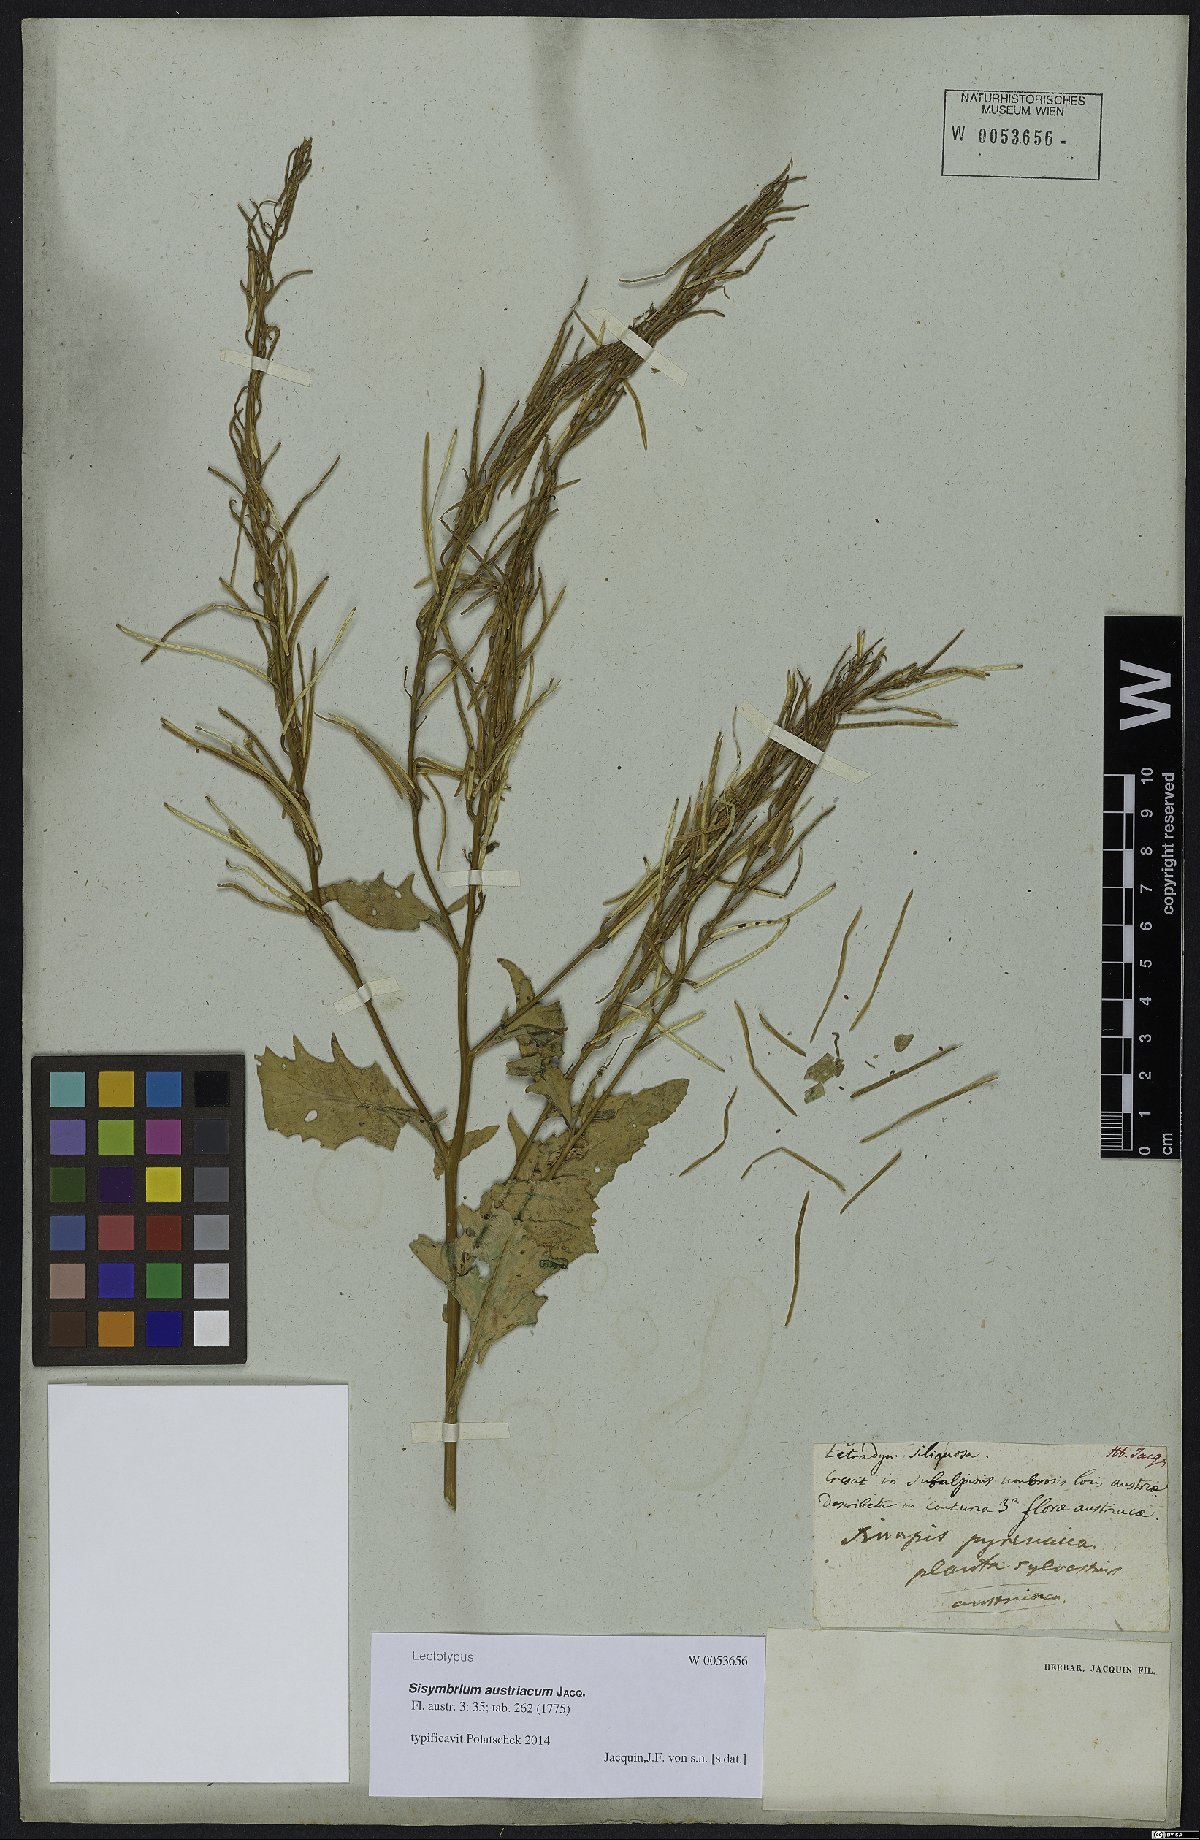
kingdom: Plantae
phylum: Tracheophyta
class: Magnoliopsida
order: Brassicales
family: Brassicaceae
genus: Sisymbrium
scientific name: Sisymbrium austriacum
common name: Jeweled rocket
